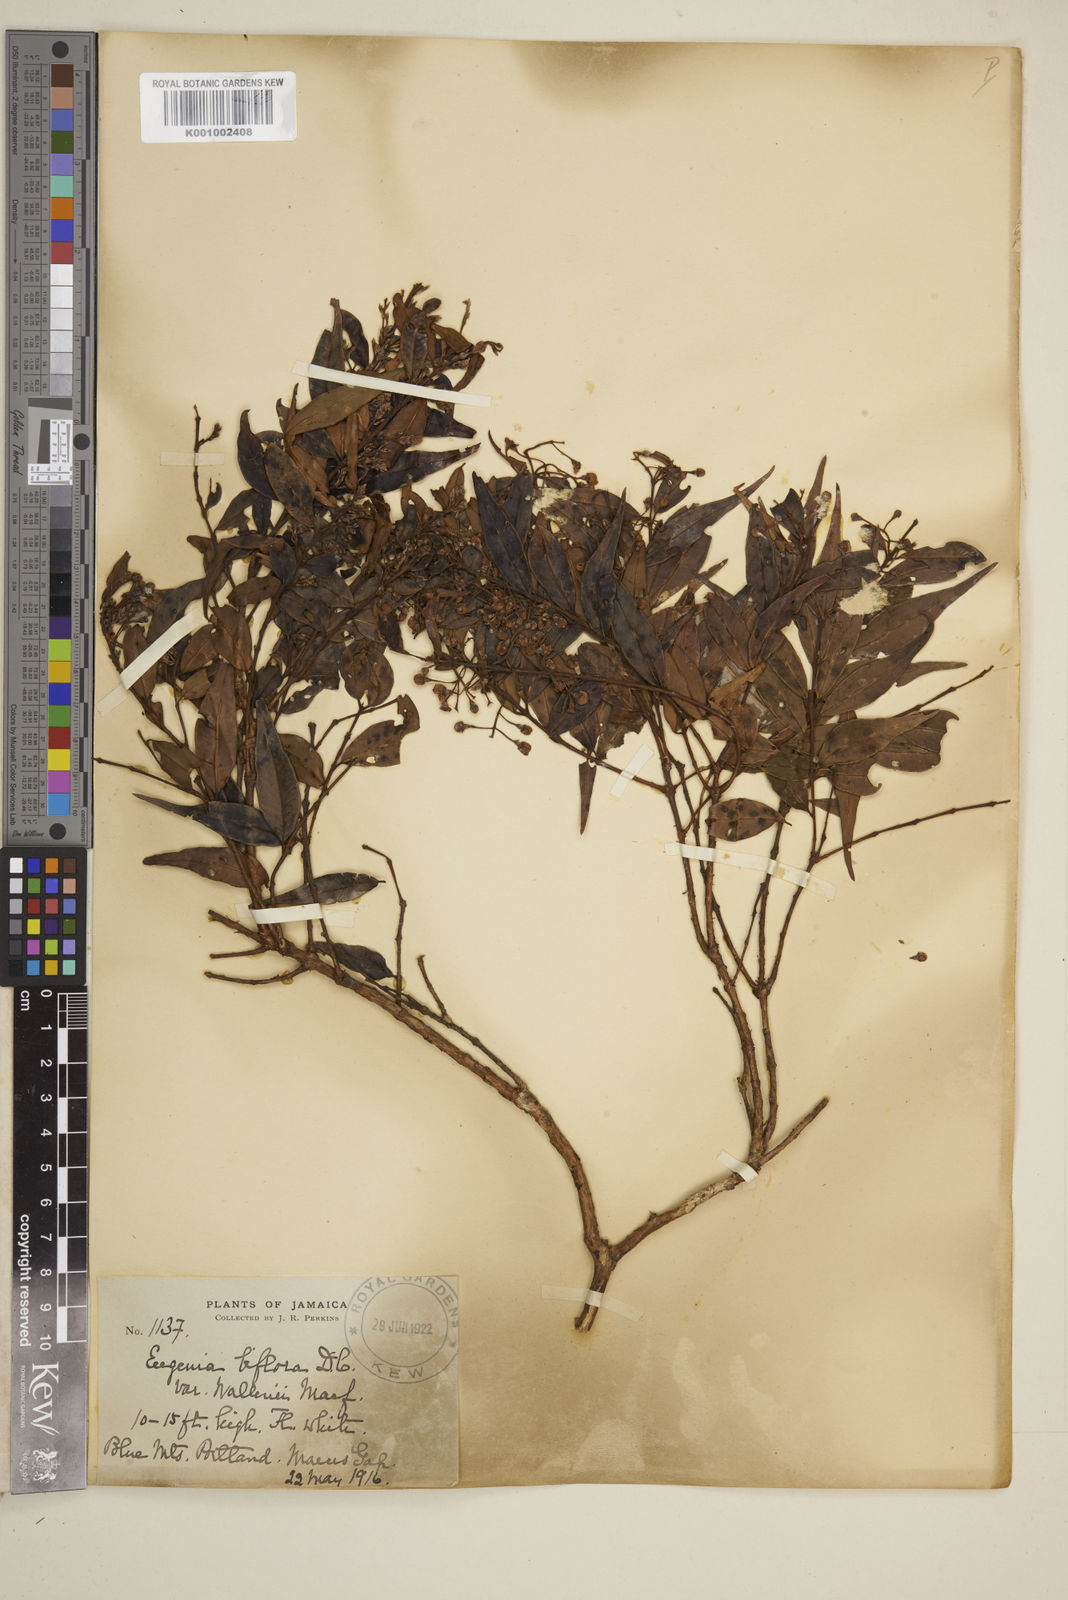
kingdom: Plantae
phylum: Tracheophyta
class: Magnoliopsida
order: Myrtales
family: Myrtaceae
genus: Eugenia
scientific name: Eugenia biflora
